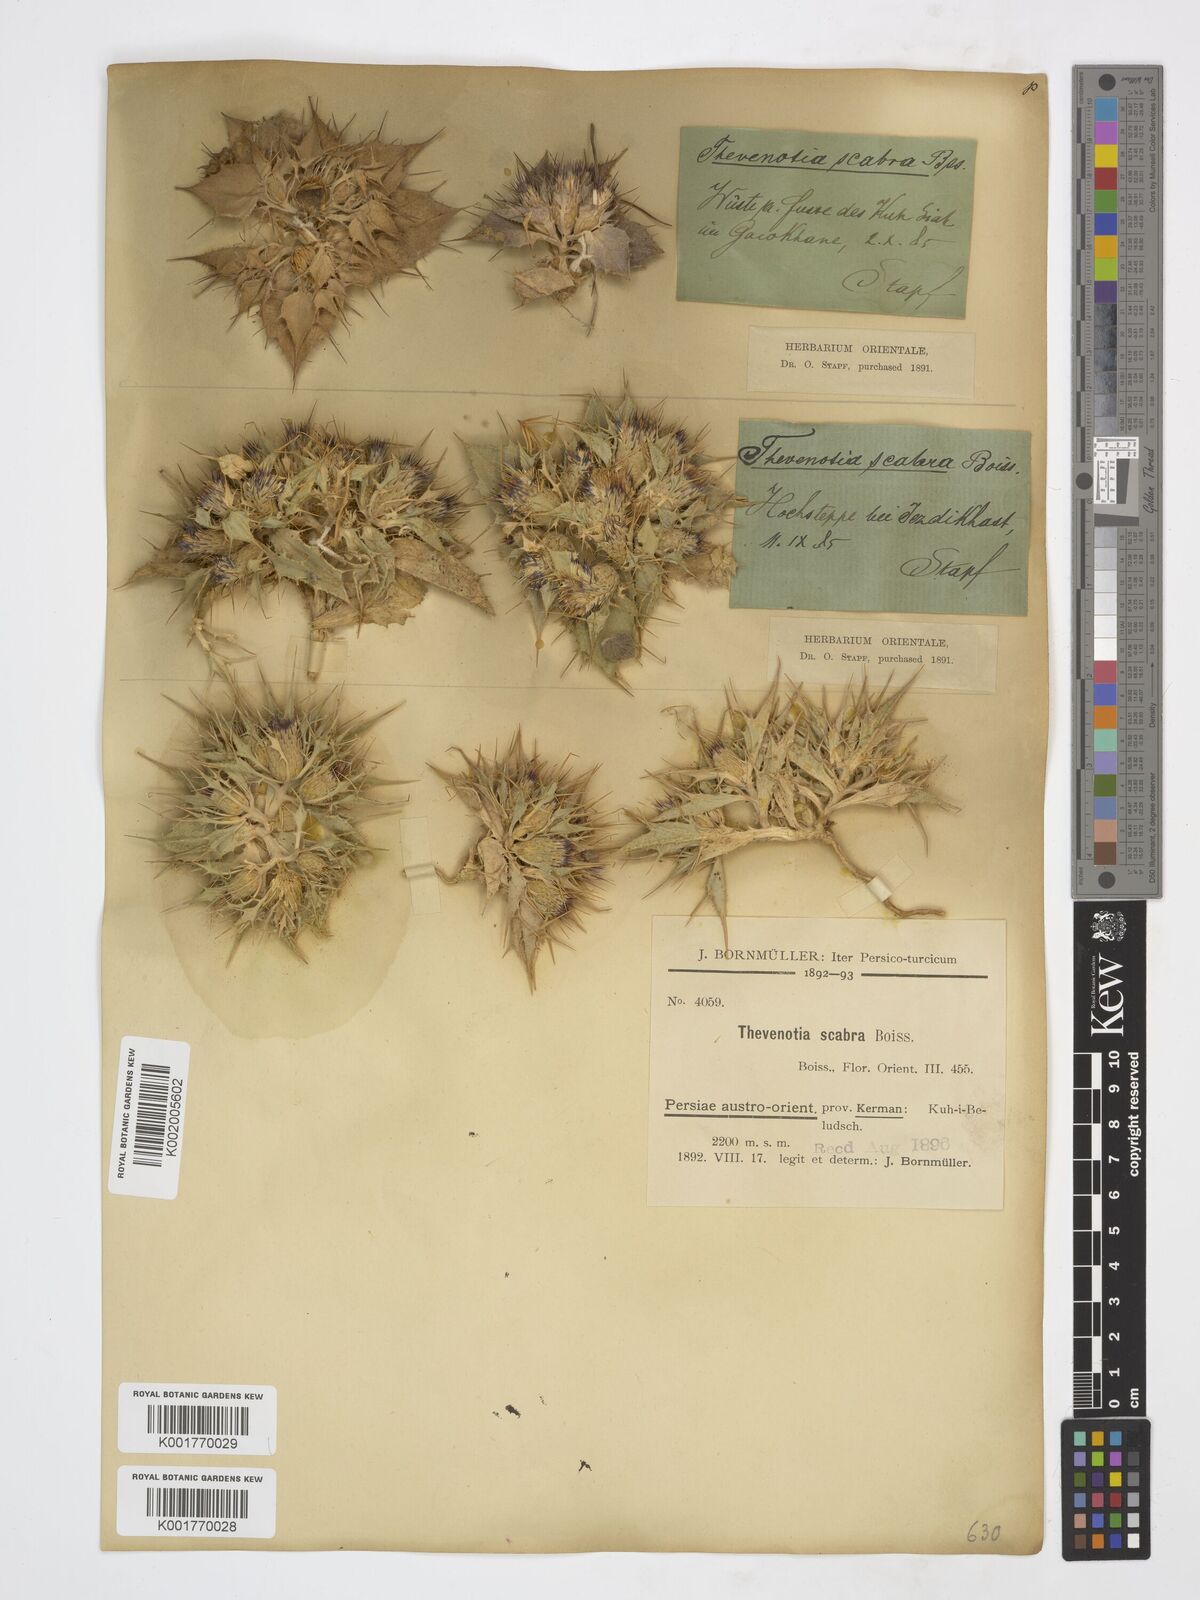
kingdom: Plantae
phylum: Tracheophyta
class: Magnoliopsida
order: Asterales
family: Asteraceae
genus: Thevenotia
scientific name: Thevenotia scabra
